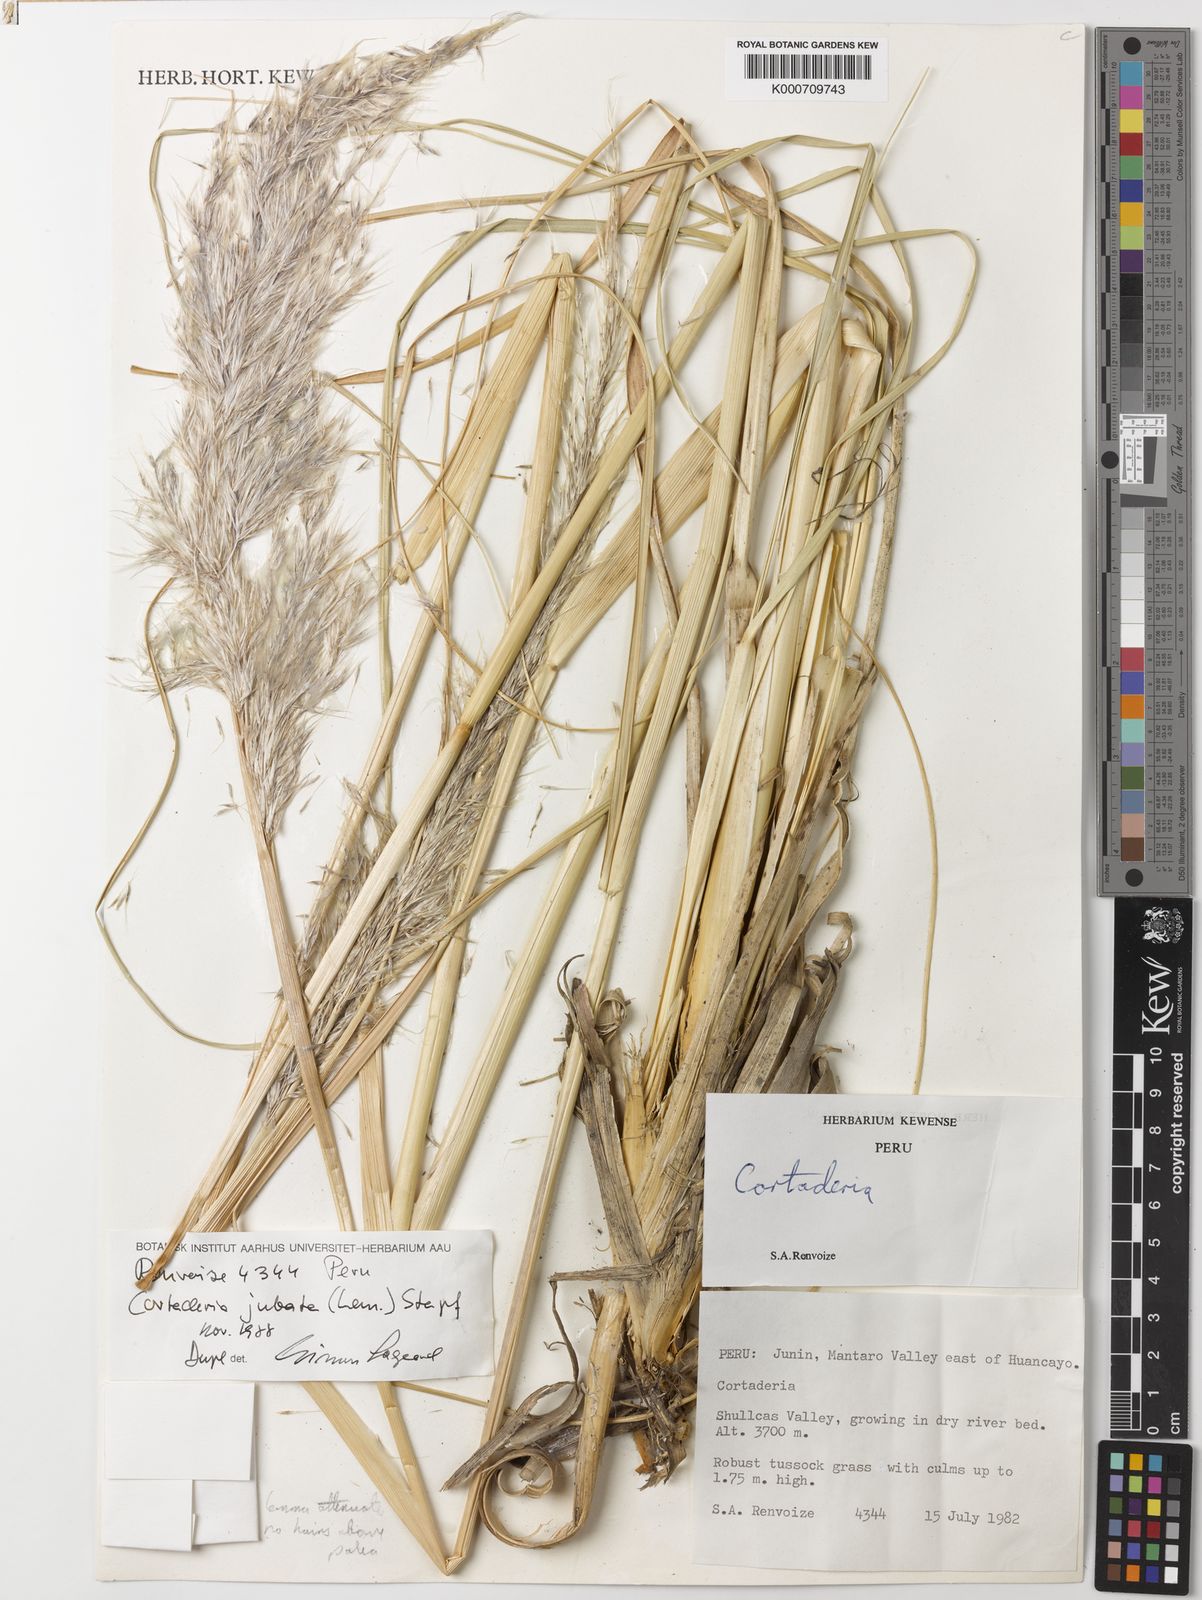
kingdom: Plantae
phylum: Tracheophyta
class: Liliopsida
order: Poales
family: Poaceae
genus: Cortaderia
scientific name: Cortaderia jubata
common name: Purple pampas grass
